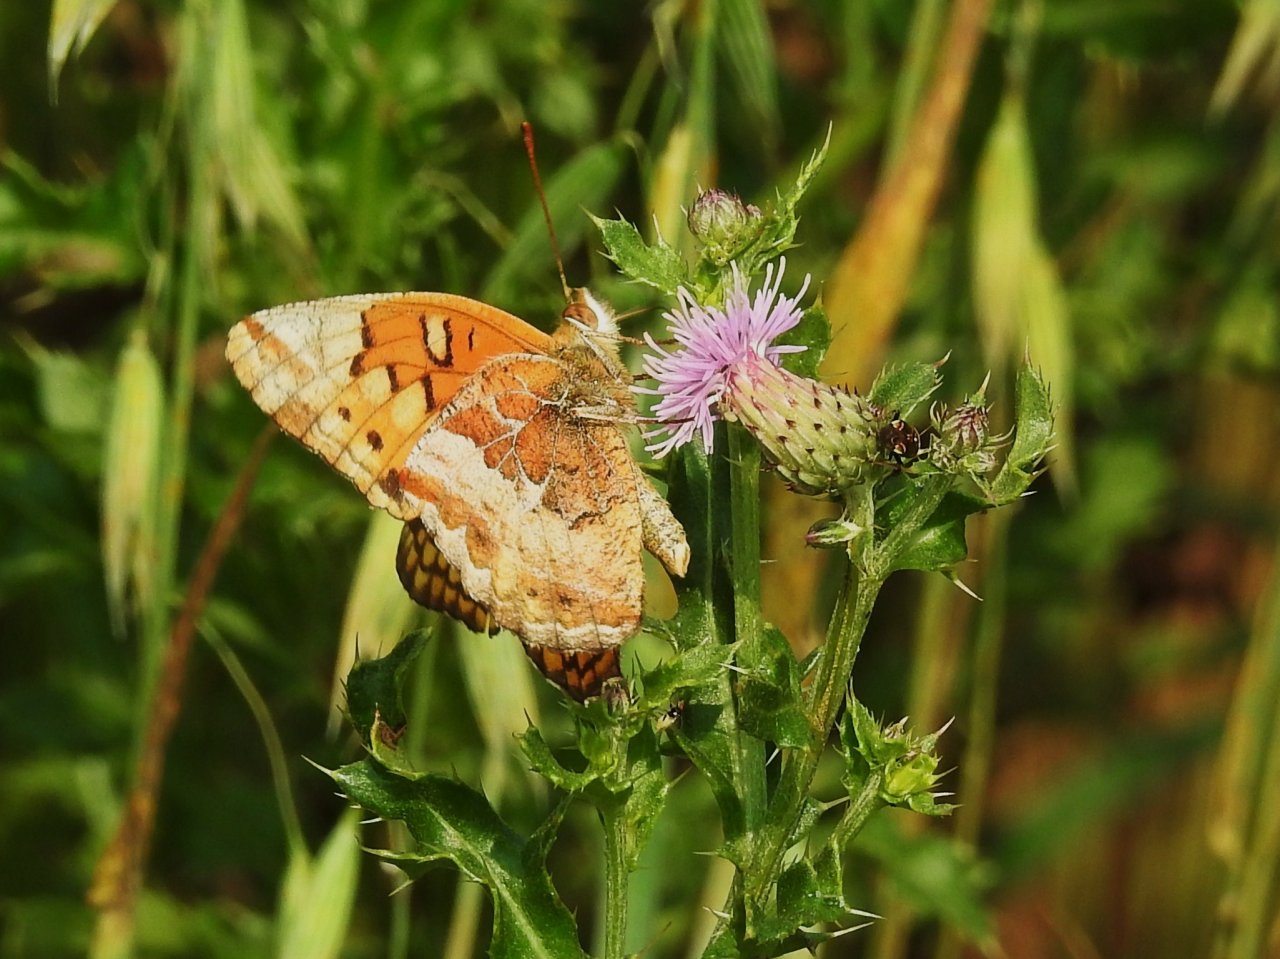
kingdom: Animalia
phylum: Arthropoda
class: Insecta
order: Lepidoptera
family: Nymphalidae
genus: Euptoieta
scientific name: Euptoieta claudia
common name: Variegated Fritillary
